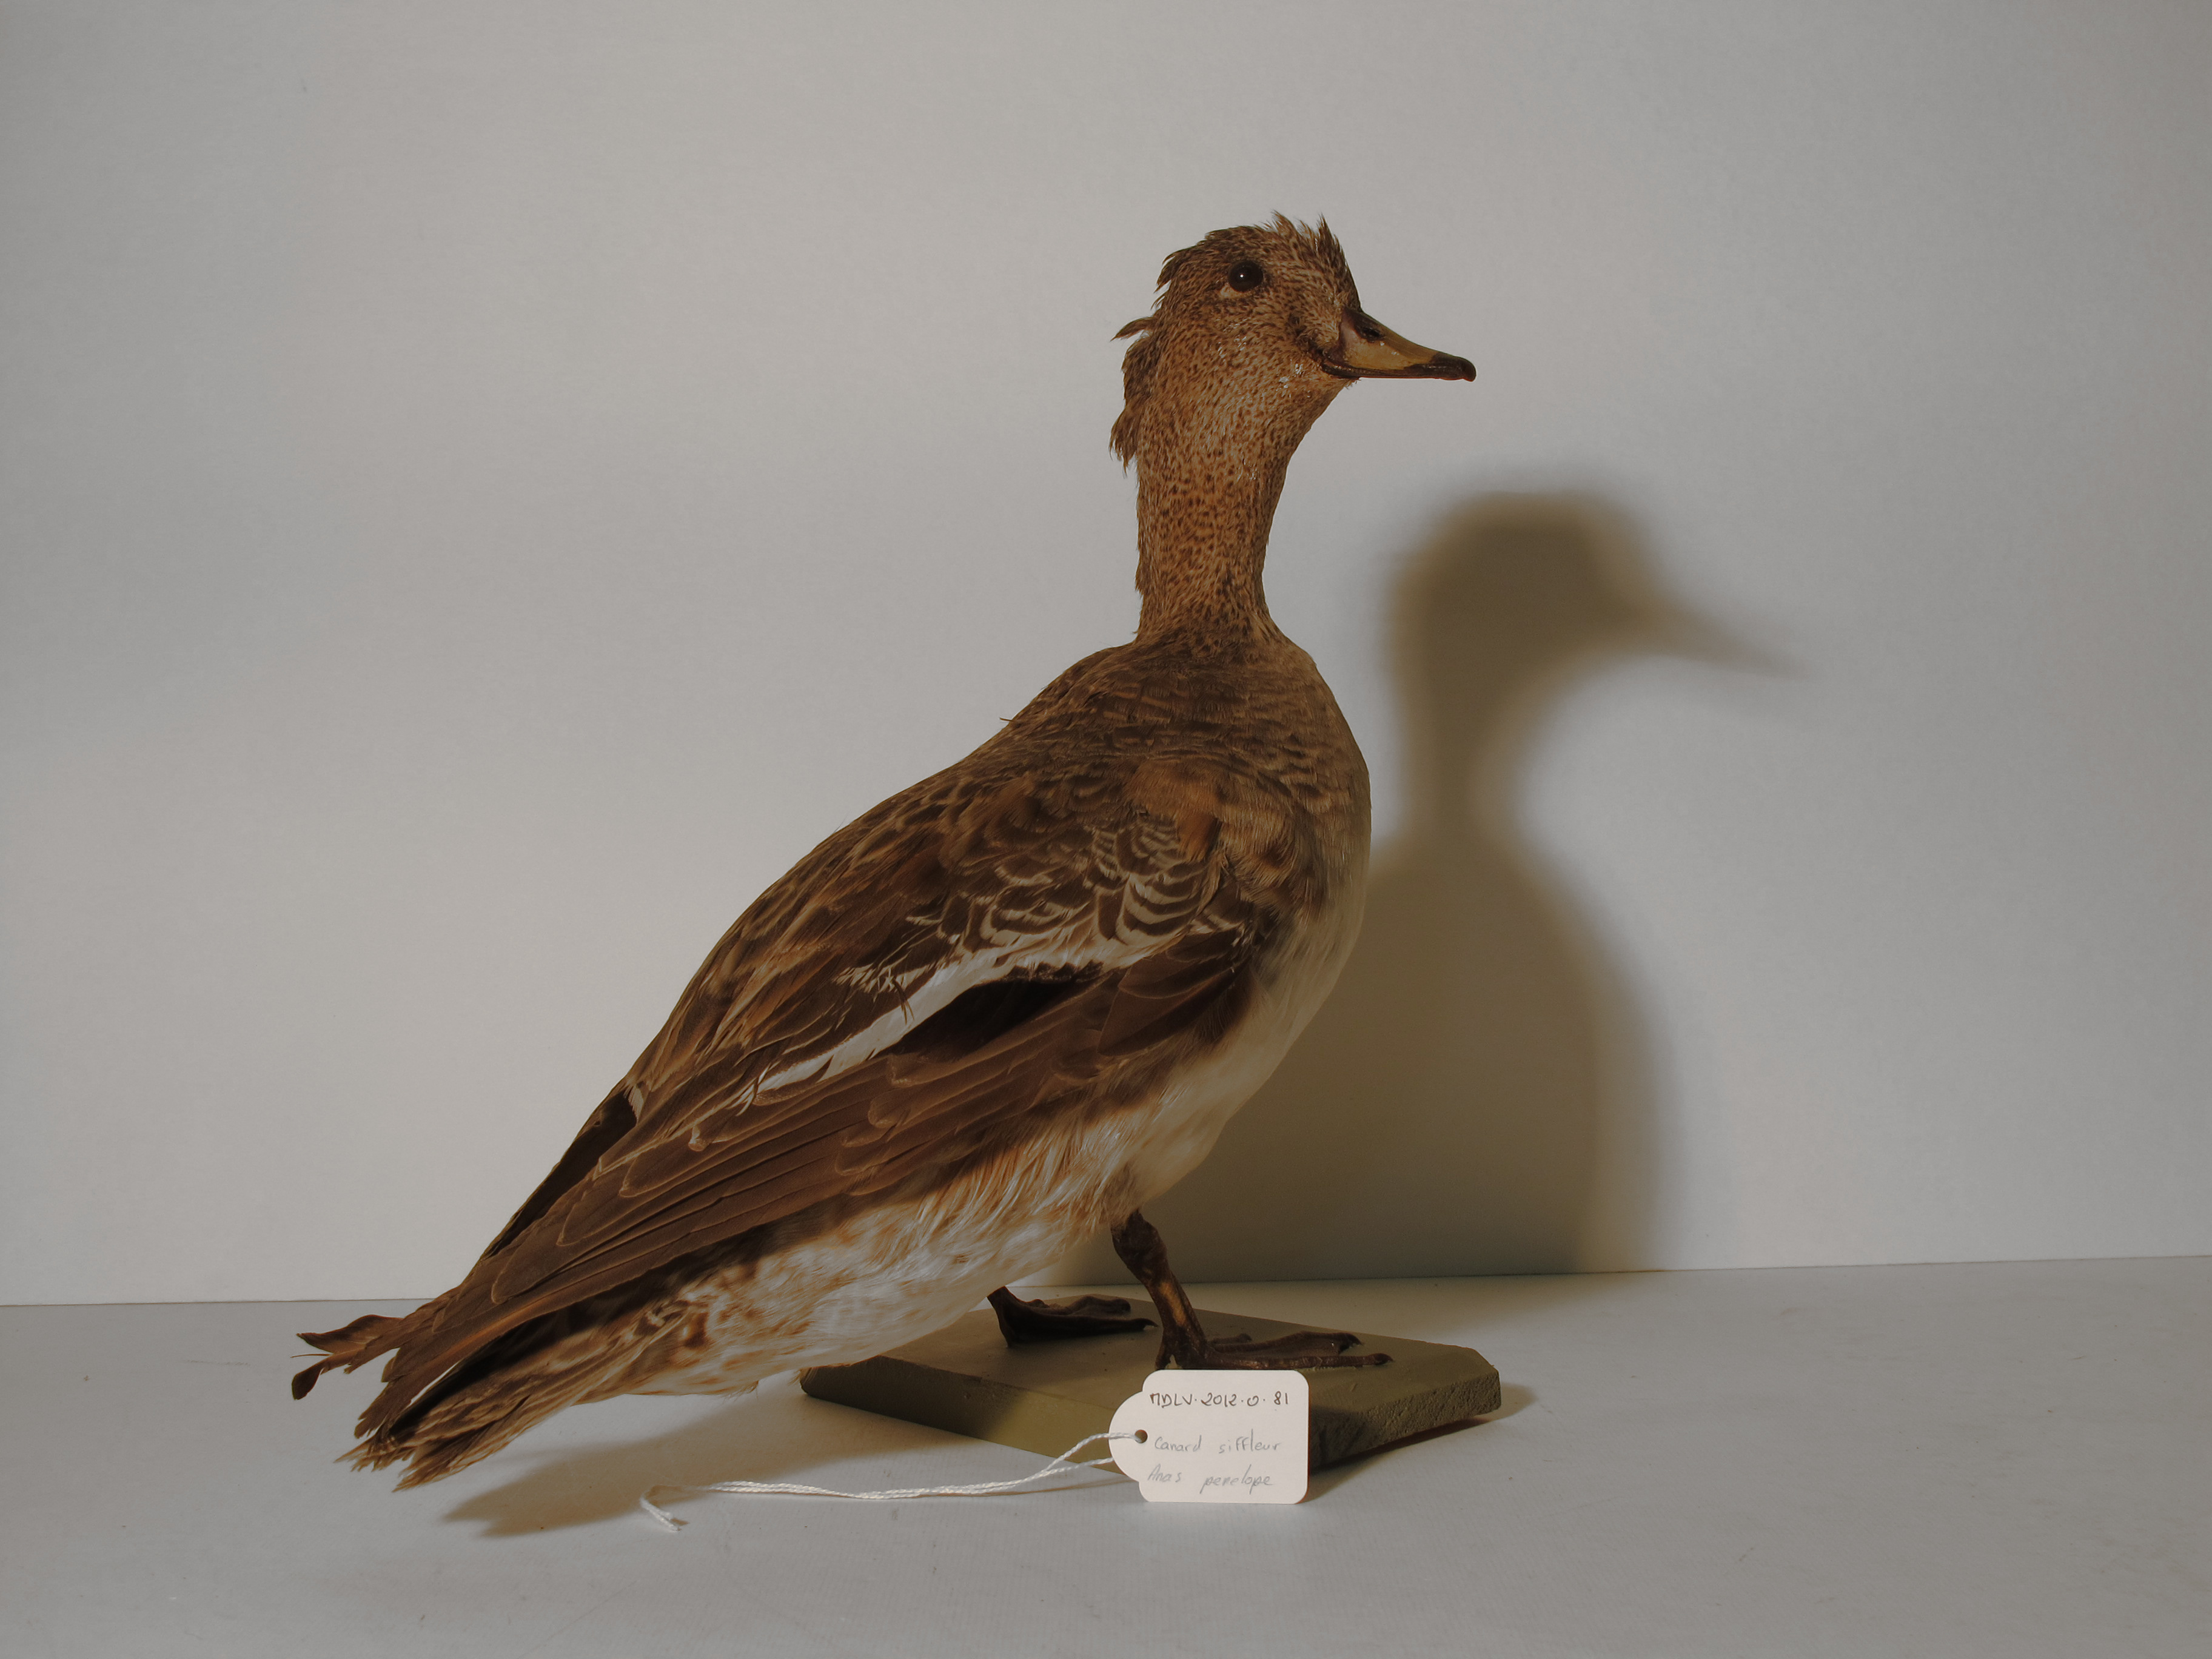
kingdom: Animalia
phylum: Chordata
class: Aves
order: Anseriformes
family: Anatidae
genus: Mareca
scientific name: Mareca penelope
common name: Eurasian Wigeon
